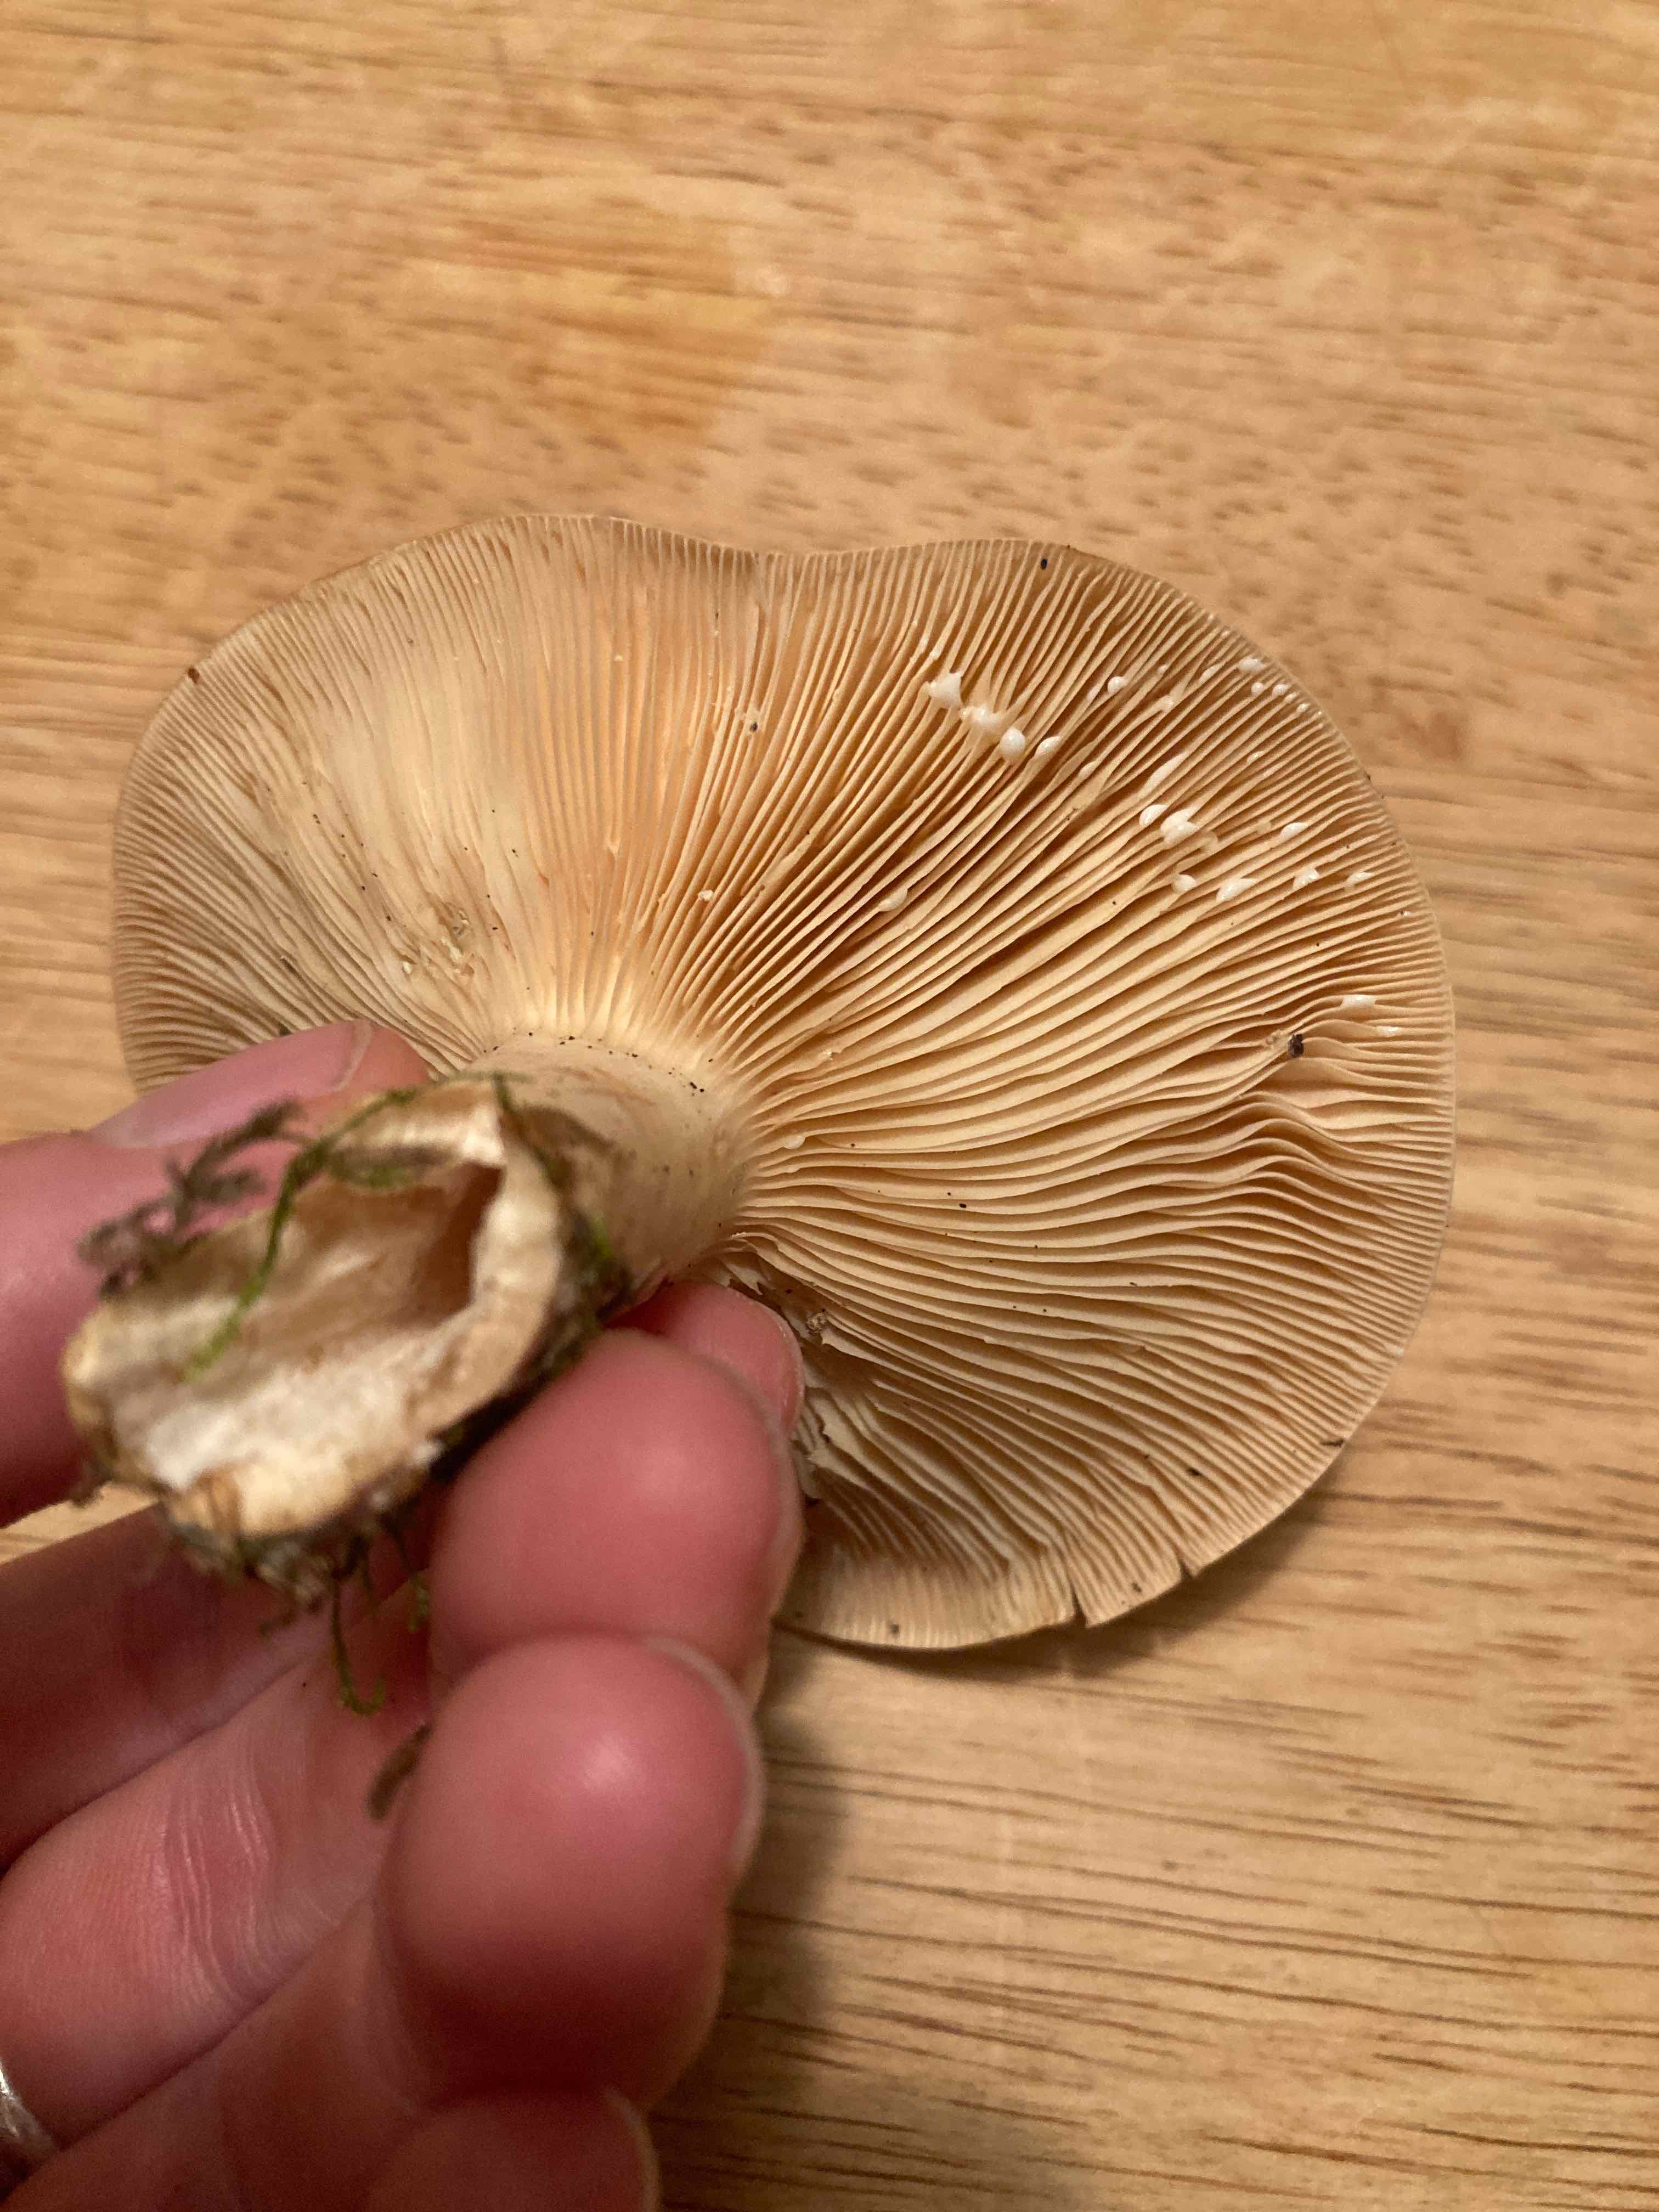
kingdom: Fungi
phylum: Basidiomycota
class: Agaricomycetes
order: Russulales
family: Russulaceae
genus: Lactarius
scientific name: Lactarius
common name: mælkehat
